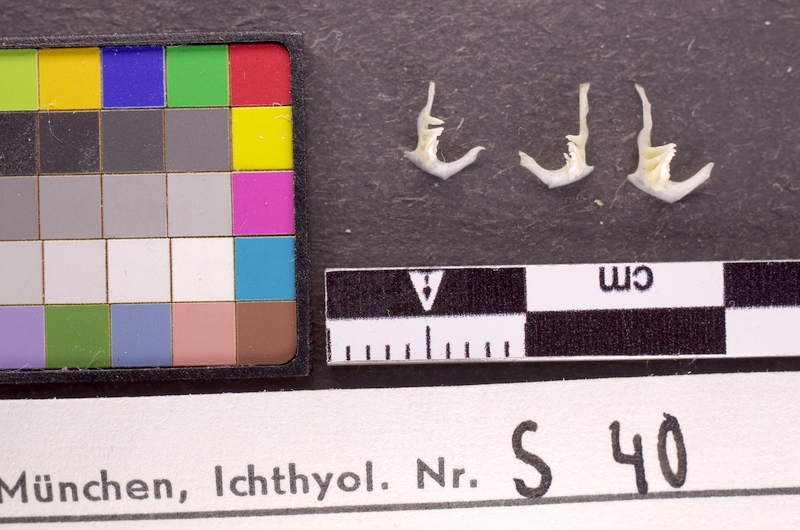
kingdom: Animalia
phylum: Chordata
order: Cypriniformes
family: Cyprinidae
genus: Alburnus
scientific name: Alburnus alburnus
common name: Bleak
